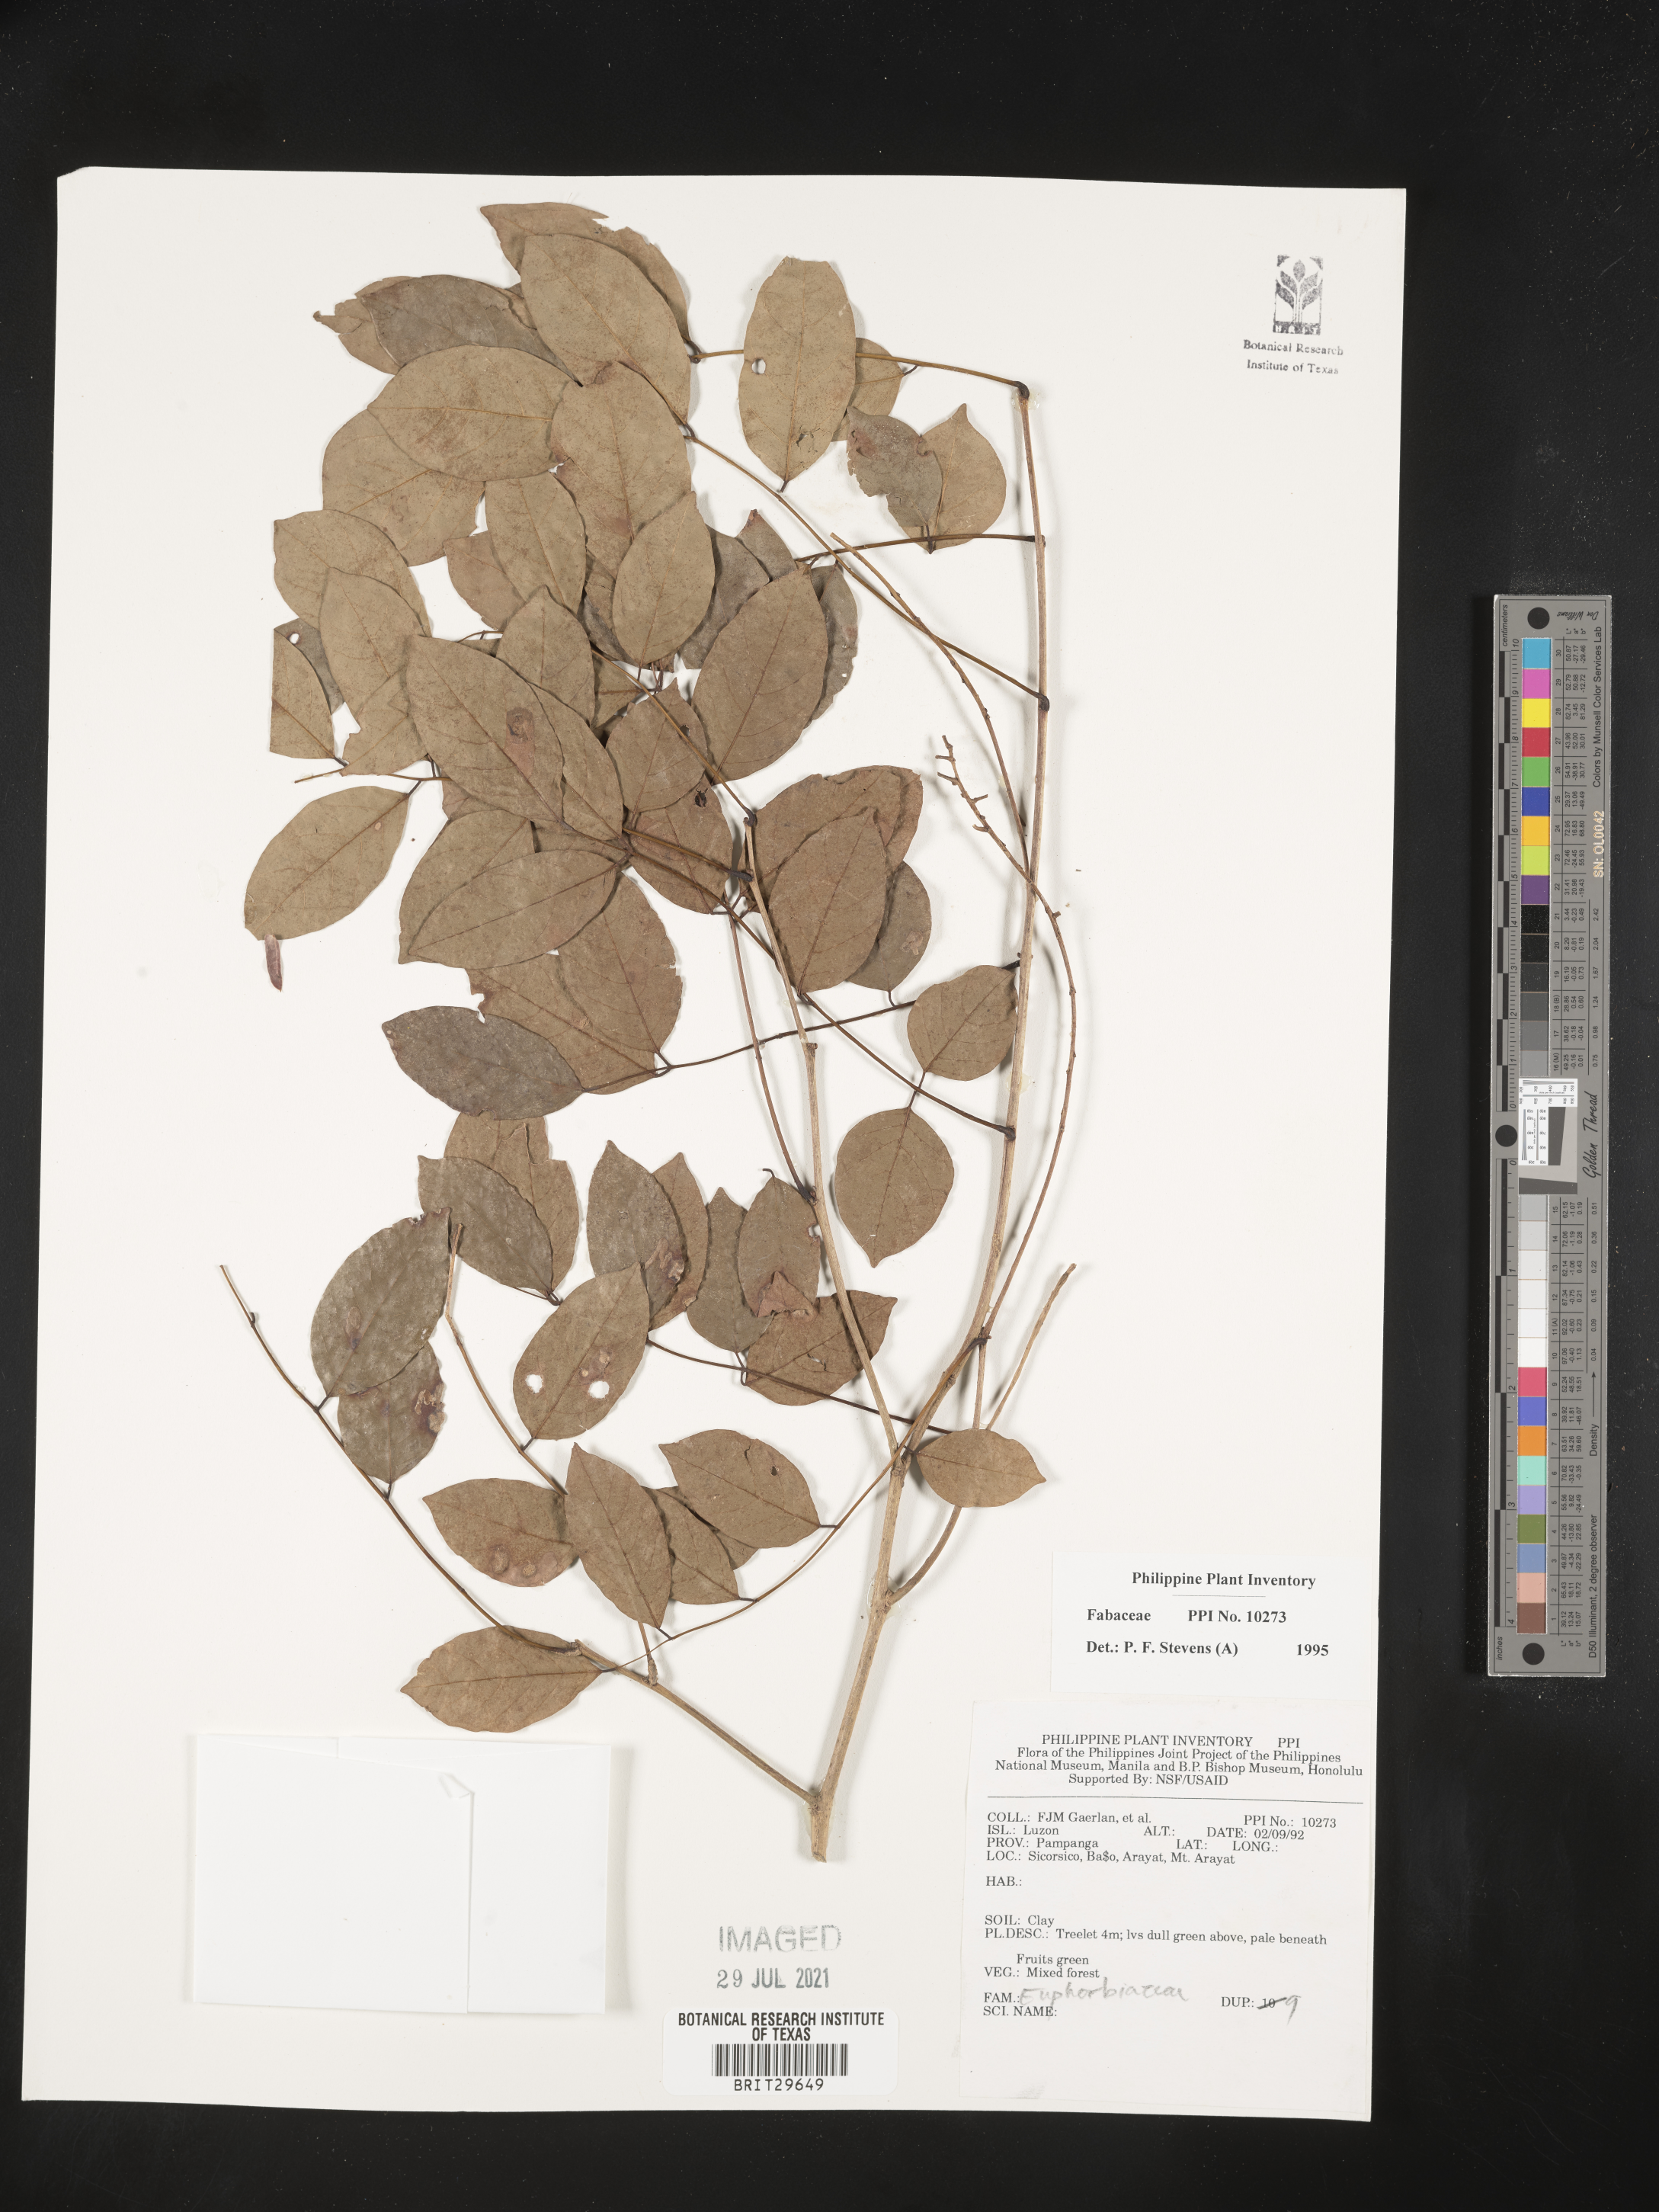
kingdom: Plantae
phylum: Tracheophyta
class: Magnoliopsida
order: Fabales
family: Fabaceae
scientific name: Fabaceae
